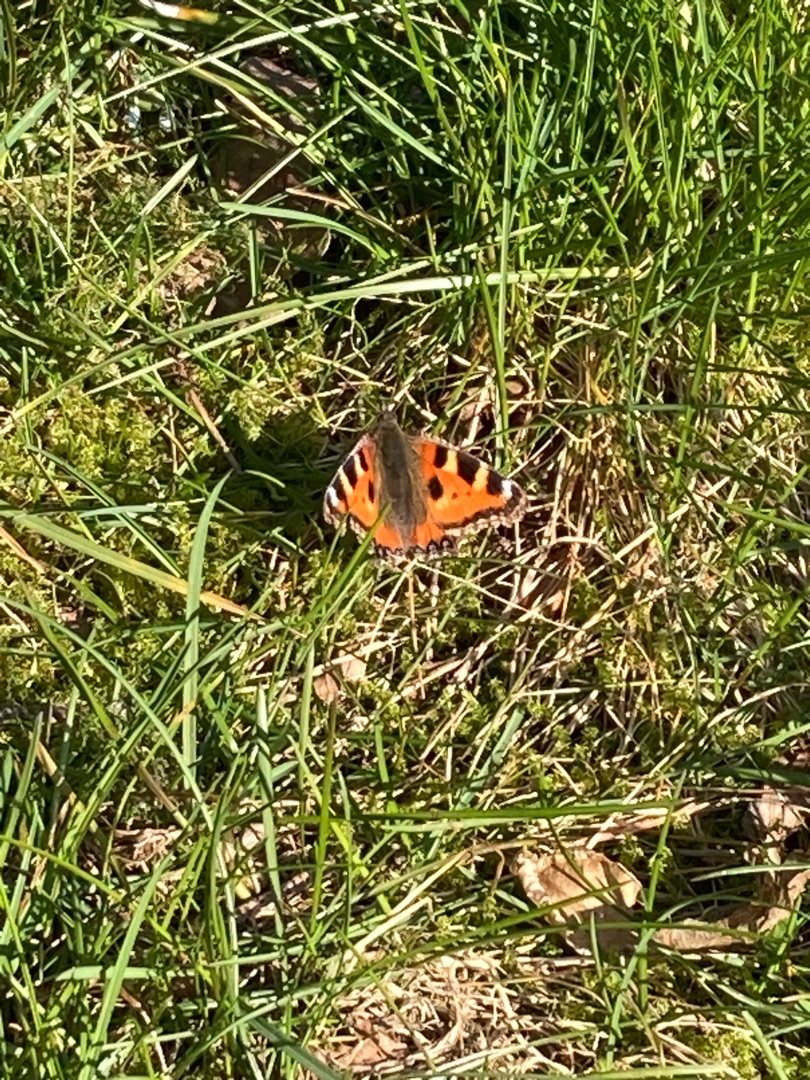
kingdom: Animalia
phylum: Arthropoda
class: Insecta
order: Lepidoptera
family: Nymphalidae
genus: Aglais
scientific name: Aglais urticae
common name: Nældens takvinge
